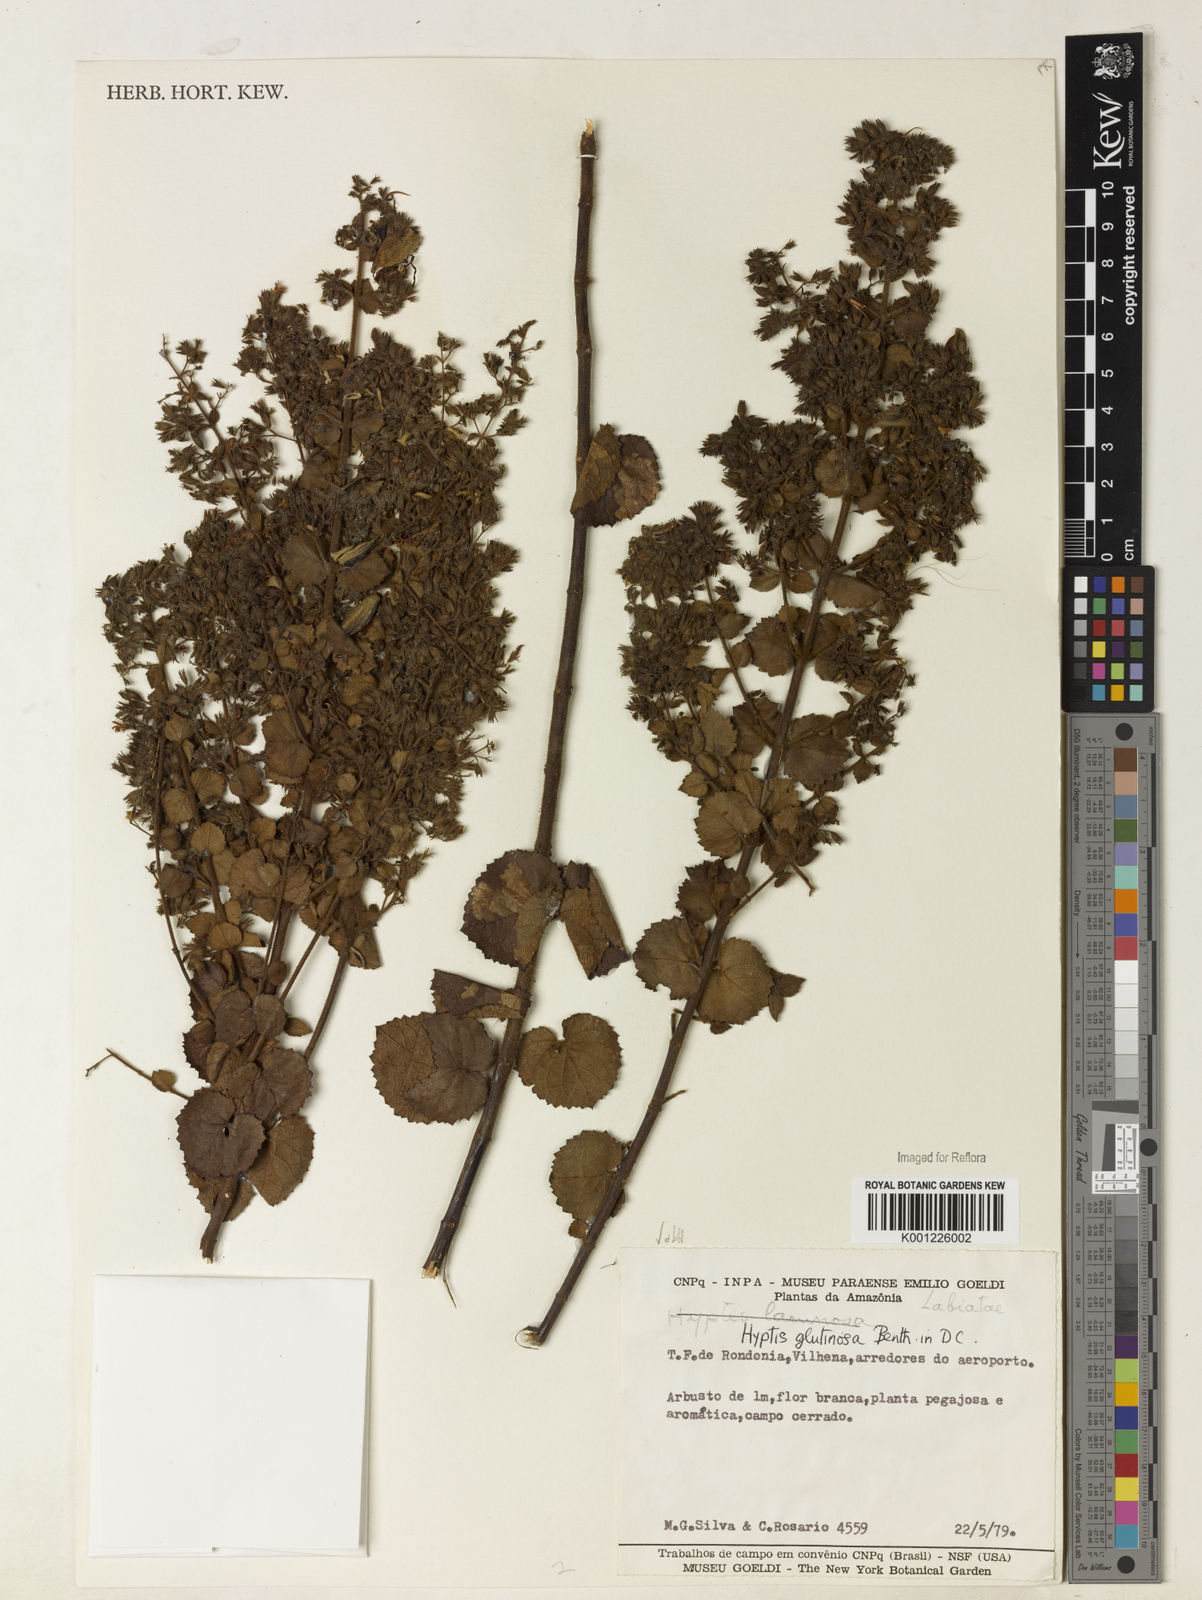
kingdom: Plantae
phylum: Tracheophyta
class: Magnoliopsida
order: Lamiales
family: Lamiaceae
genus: Hyptidendron
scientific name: Hyptidendron glutinosum
